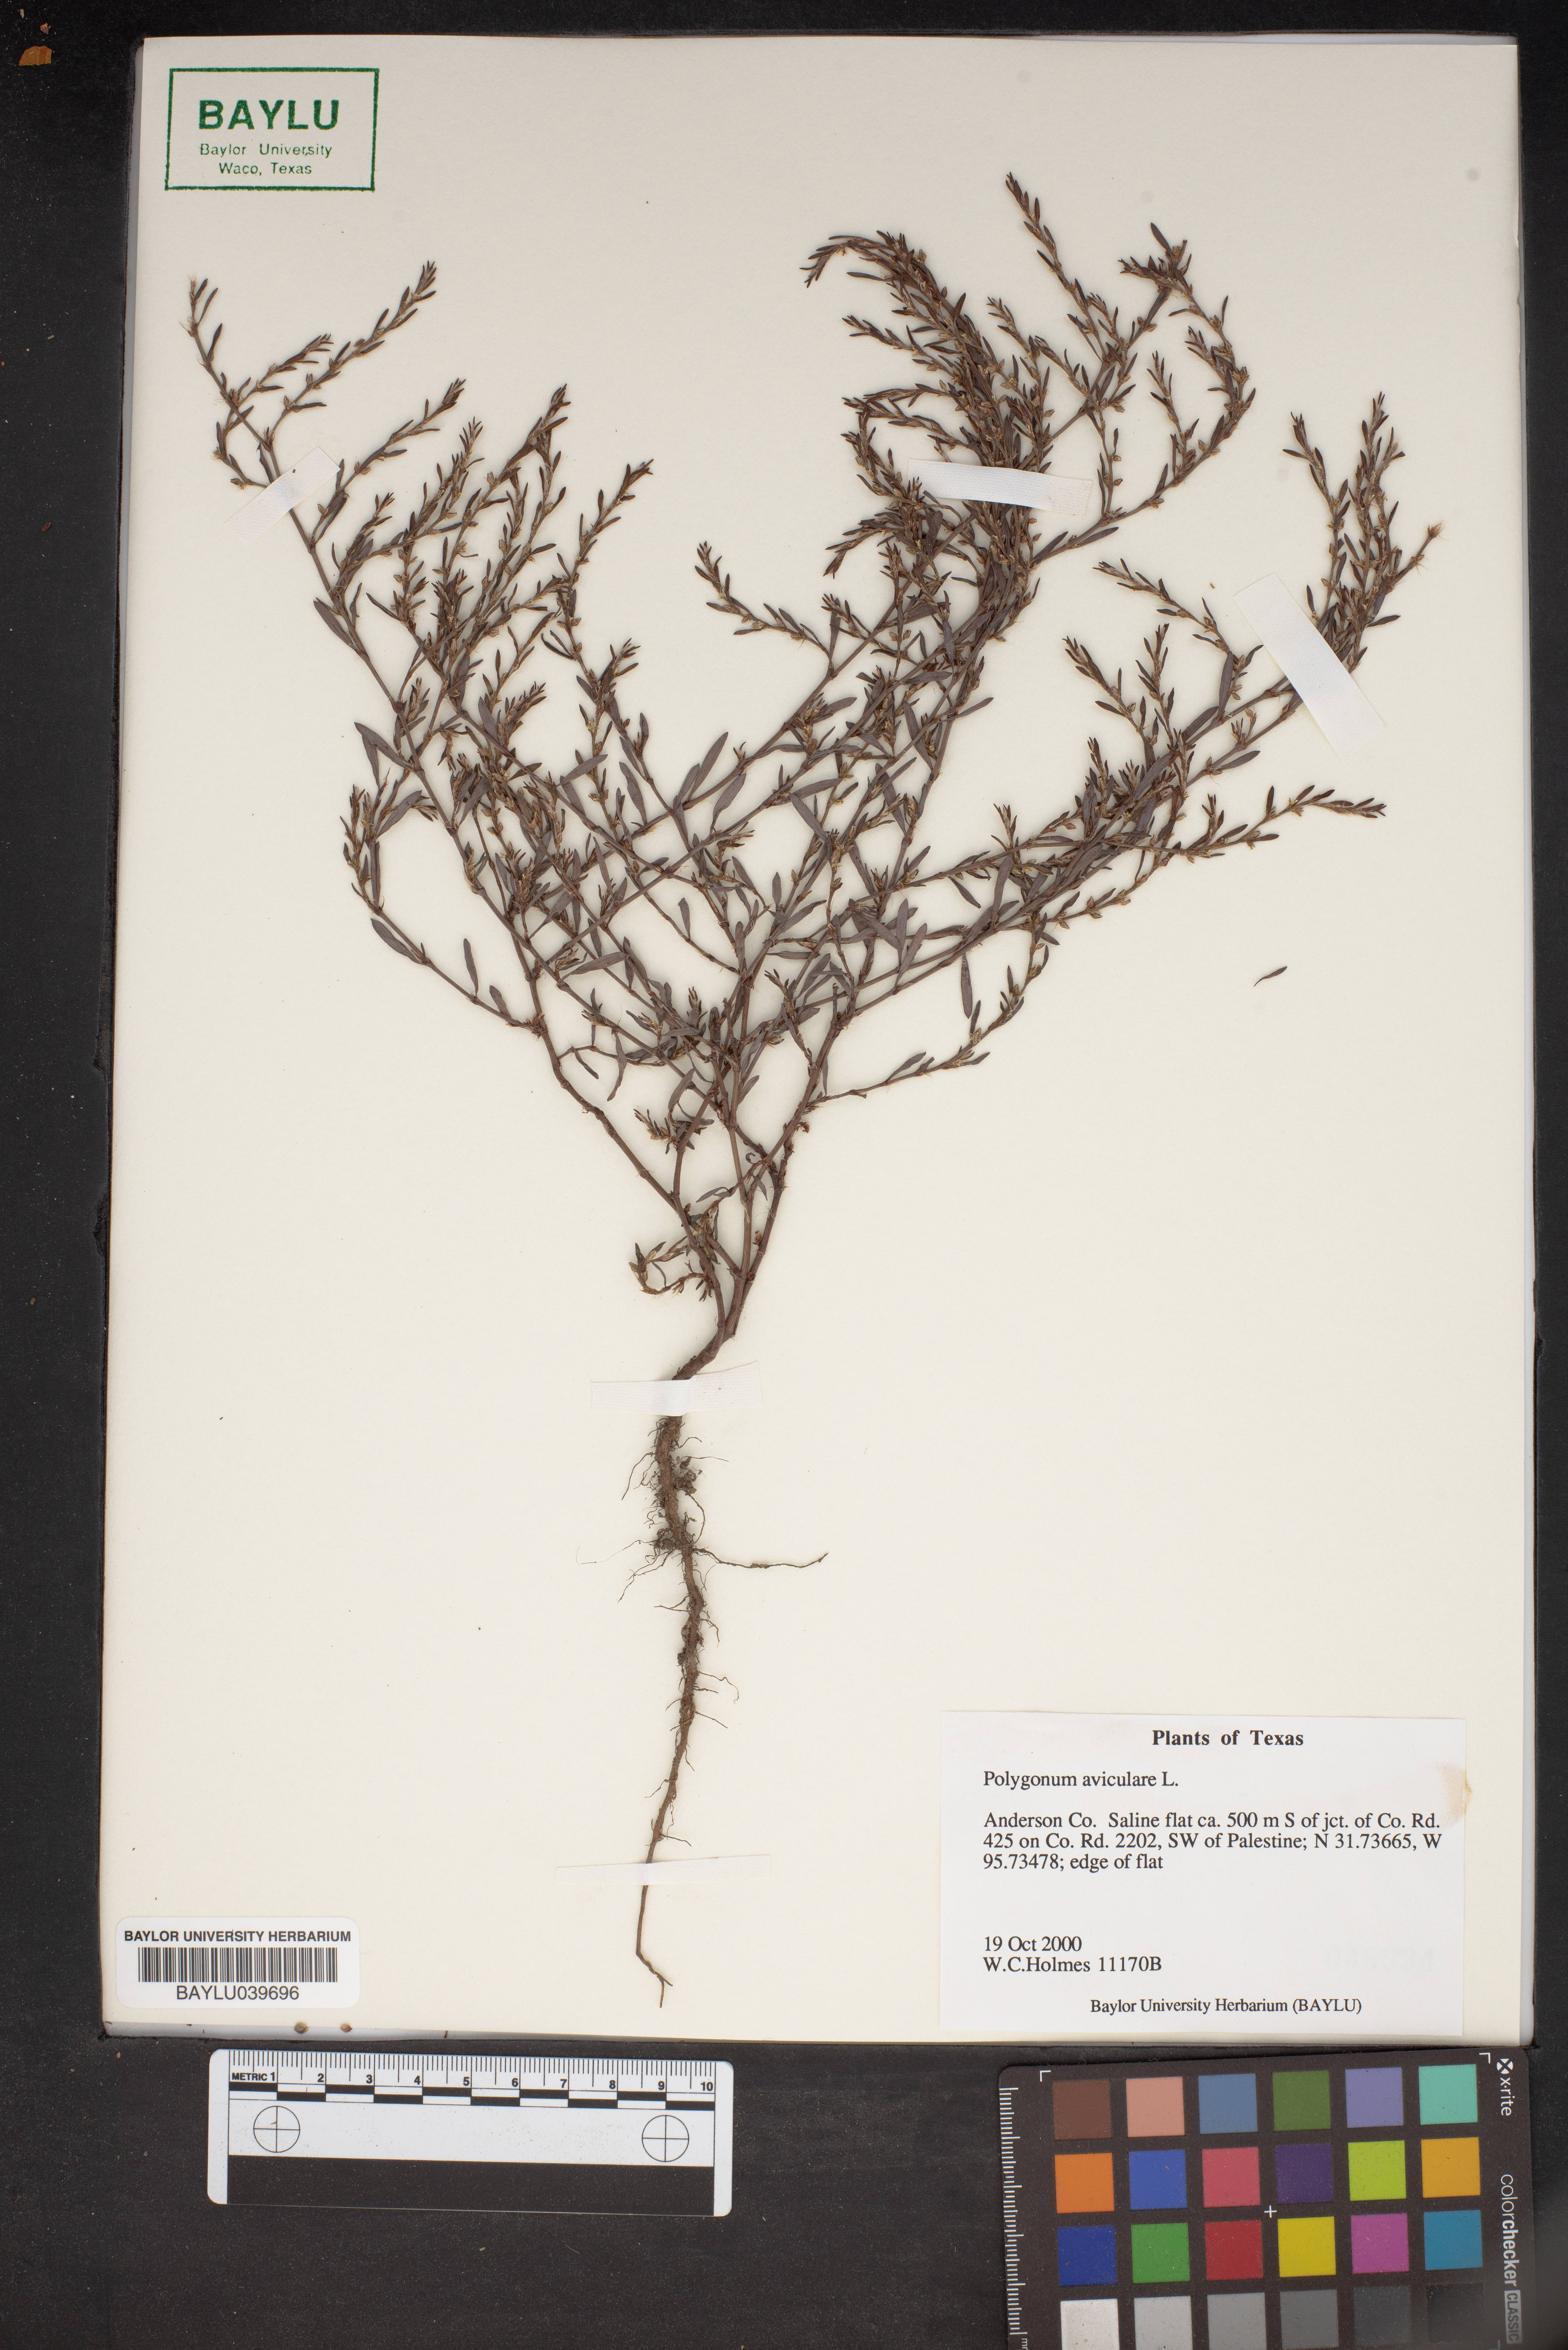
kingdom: Plantae
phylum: Tracheophyta
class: Magnoliopsida
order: Caryophyllales
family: Polygonaceae
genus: Polygonum
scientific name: Polygonum aviculare
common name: Prostrate knotweed
